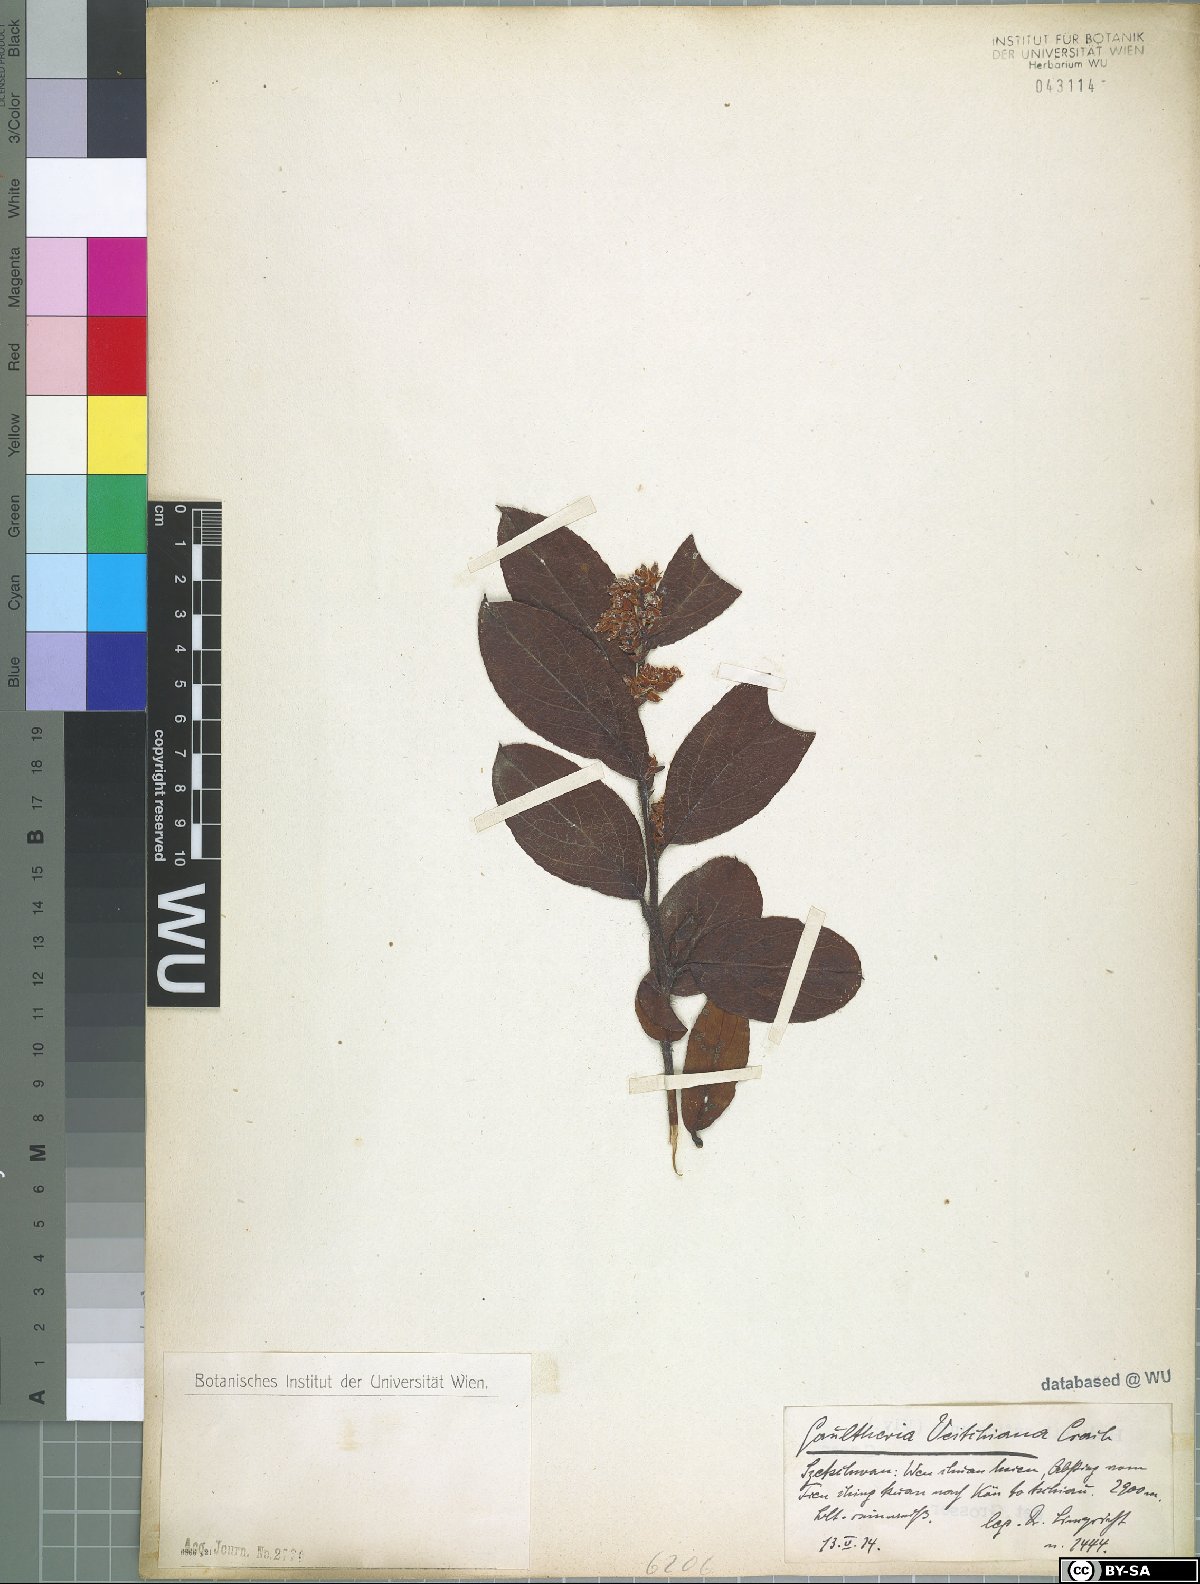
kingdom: Plantae
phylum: Tracheophyta
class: Magnoliopsida
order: Ericales
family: Ericaceae
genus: Gaultheria
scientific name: Gaultheria hookeri
